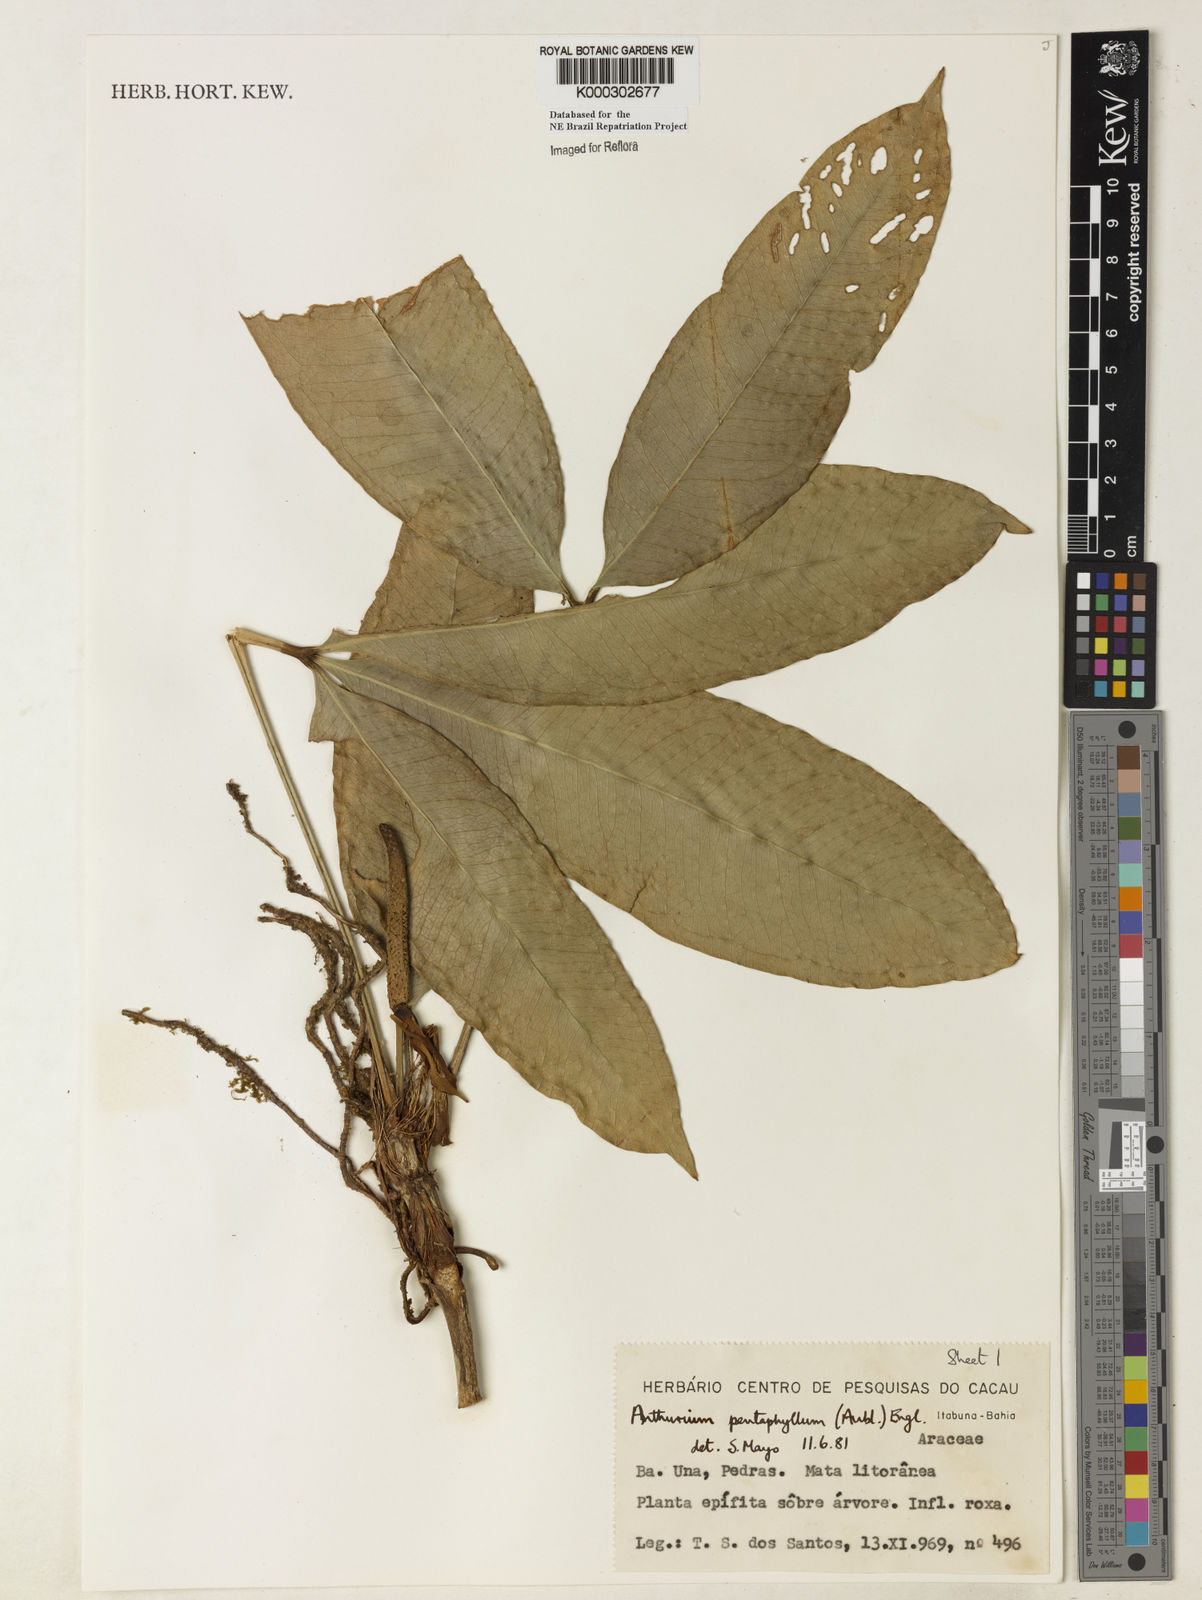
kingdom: Plantae
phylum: Tracheophyta
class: Liliopsida
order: Alismatales
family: Araceae
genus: Anthurium
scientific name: Anthurium pentaphyllum
